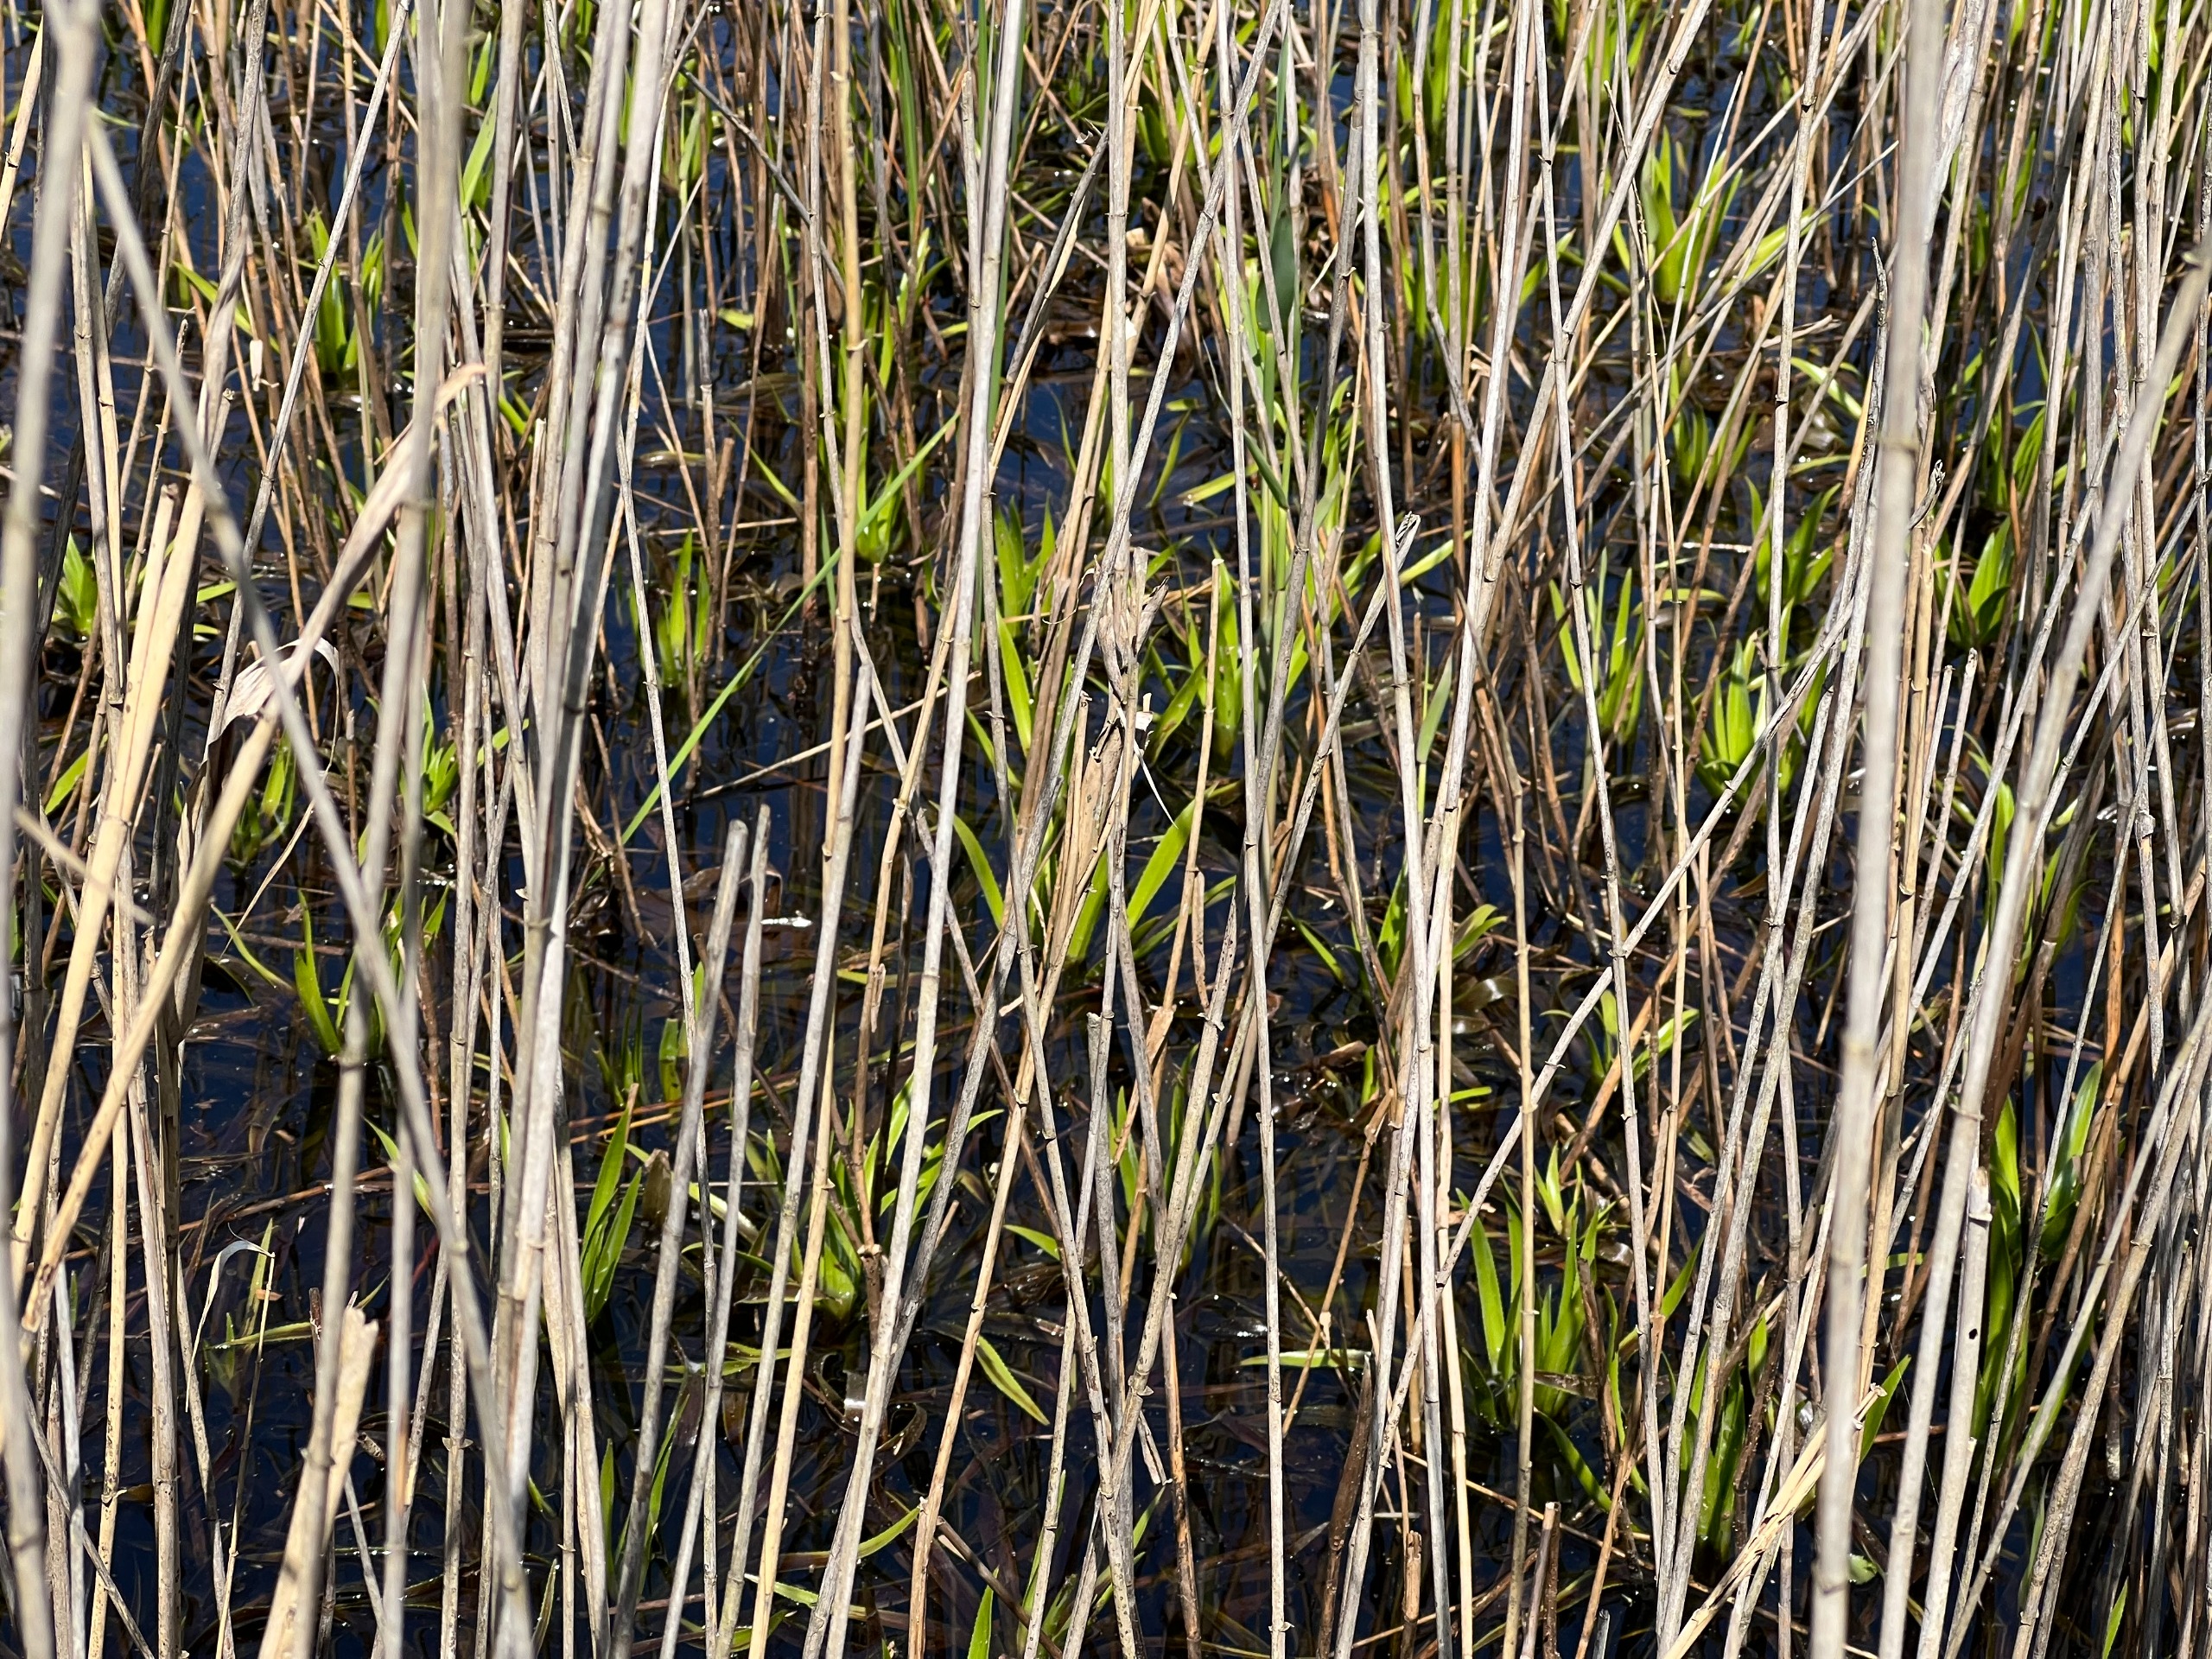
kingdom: Plantae
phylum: Tracheophyta
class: Liliopsida
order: Alismatales
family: Hydrocharitaceae
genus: Stratiotes
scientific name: Stratiotes aloides
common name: Krebseklo
